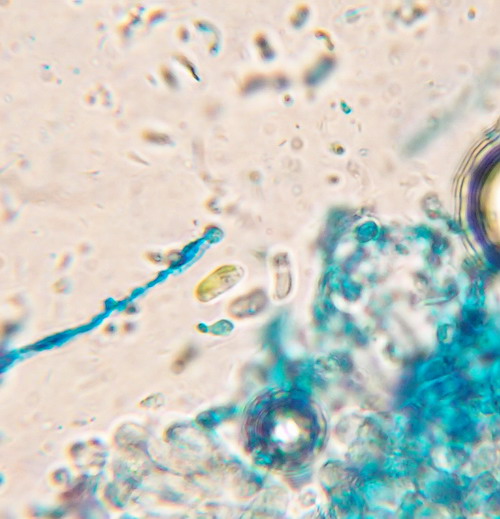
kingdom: Fungi
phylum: Basidiomycota
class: Agaricomycetes
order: Polyporales
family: Irpicaceae
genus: Ceriporia
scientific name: Ceriporia reticulata
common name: netagtig voksporesvamp
